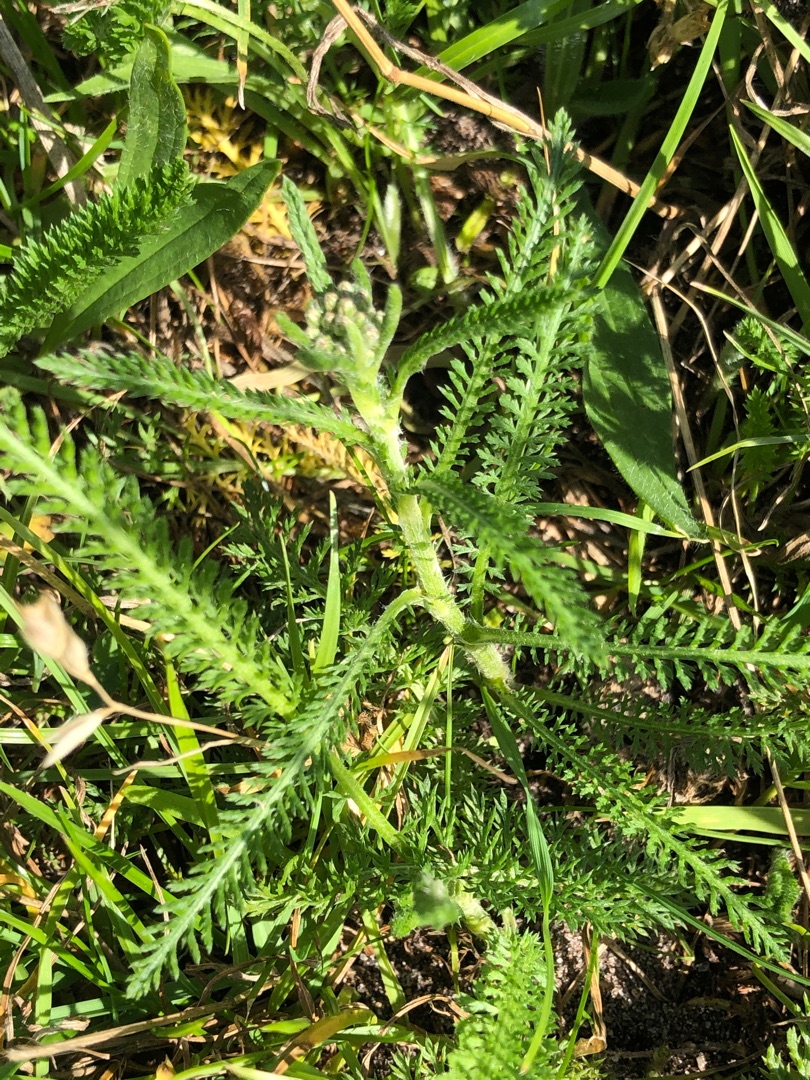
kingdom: Plantae
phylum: Tracheophyta
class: Magnoliopsida
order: Asterales
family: Asteraceae
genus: Achillea
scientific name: Achillea millefolium
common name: Almindelig røllike
